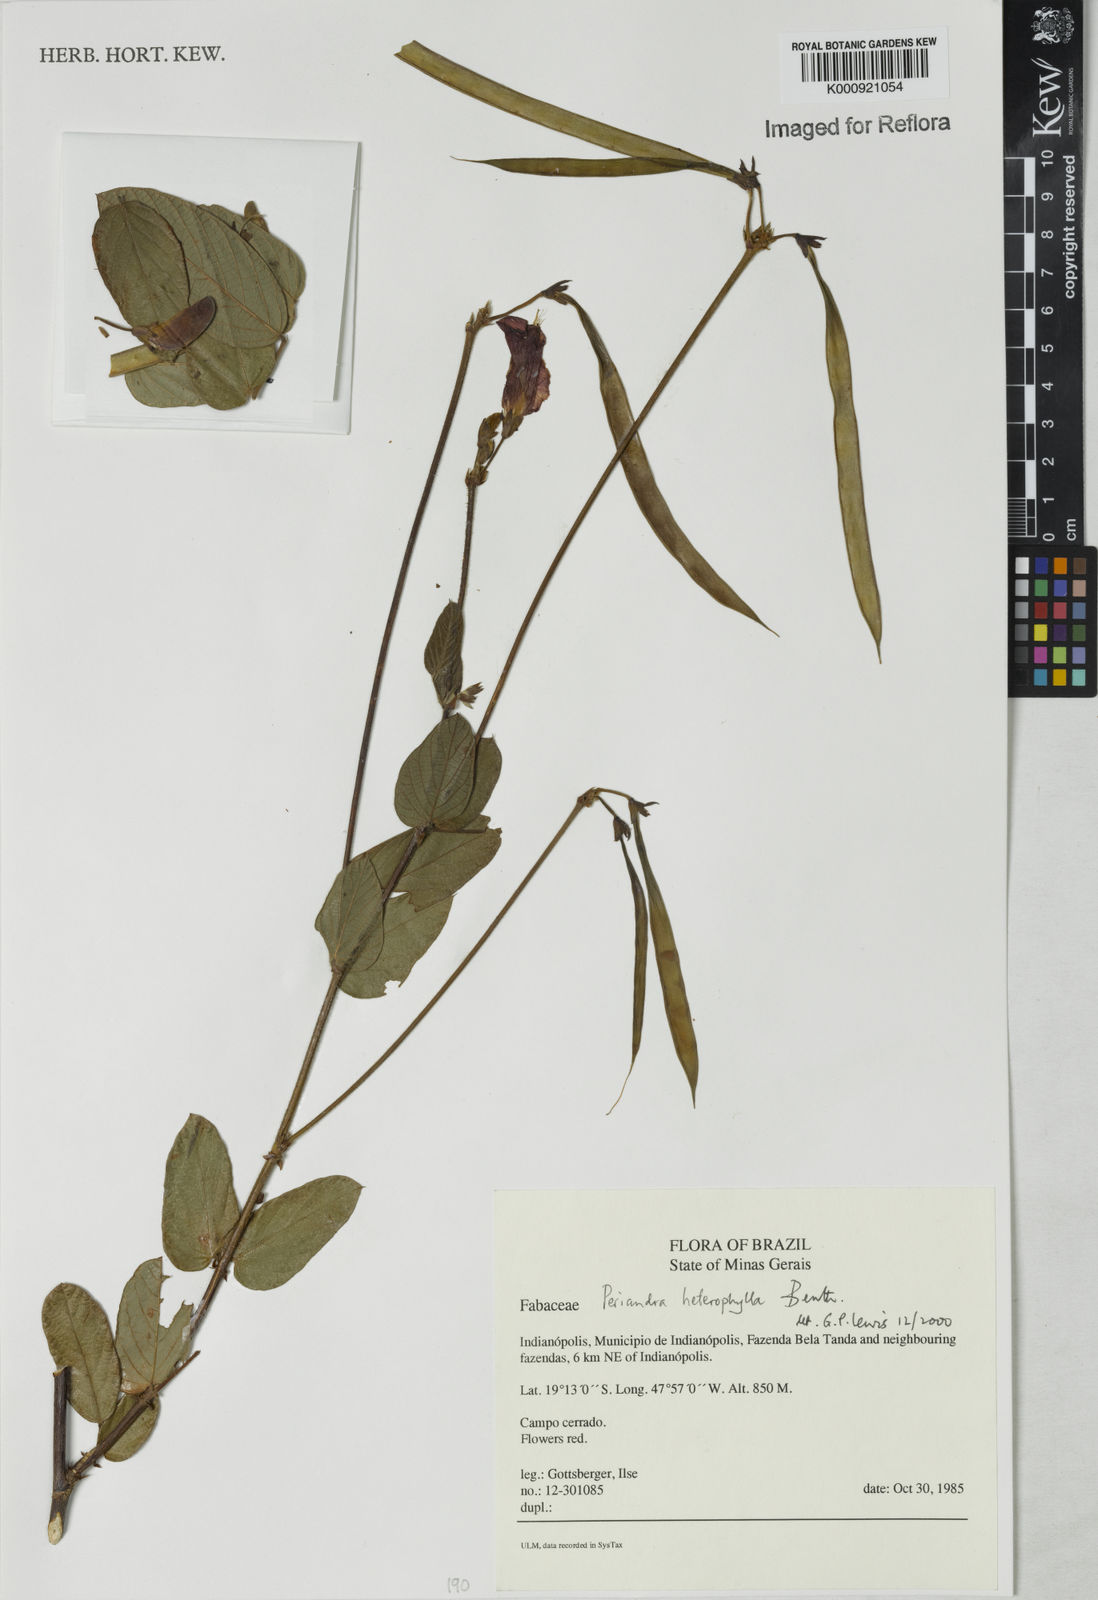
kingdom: Plantae
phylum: Tracheophyta
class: Magnoliopsida
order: Fabales
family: Fabaceae
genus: Periandra
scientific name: Periandra heterophylla
